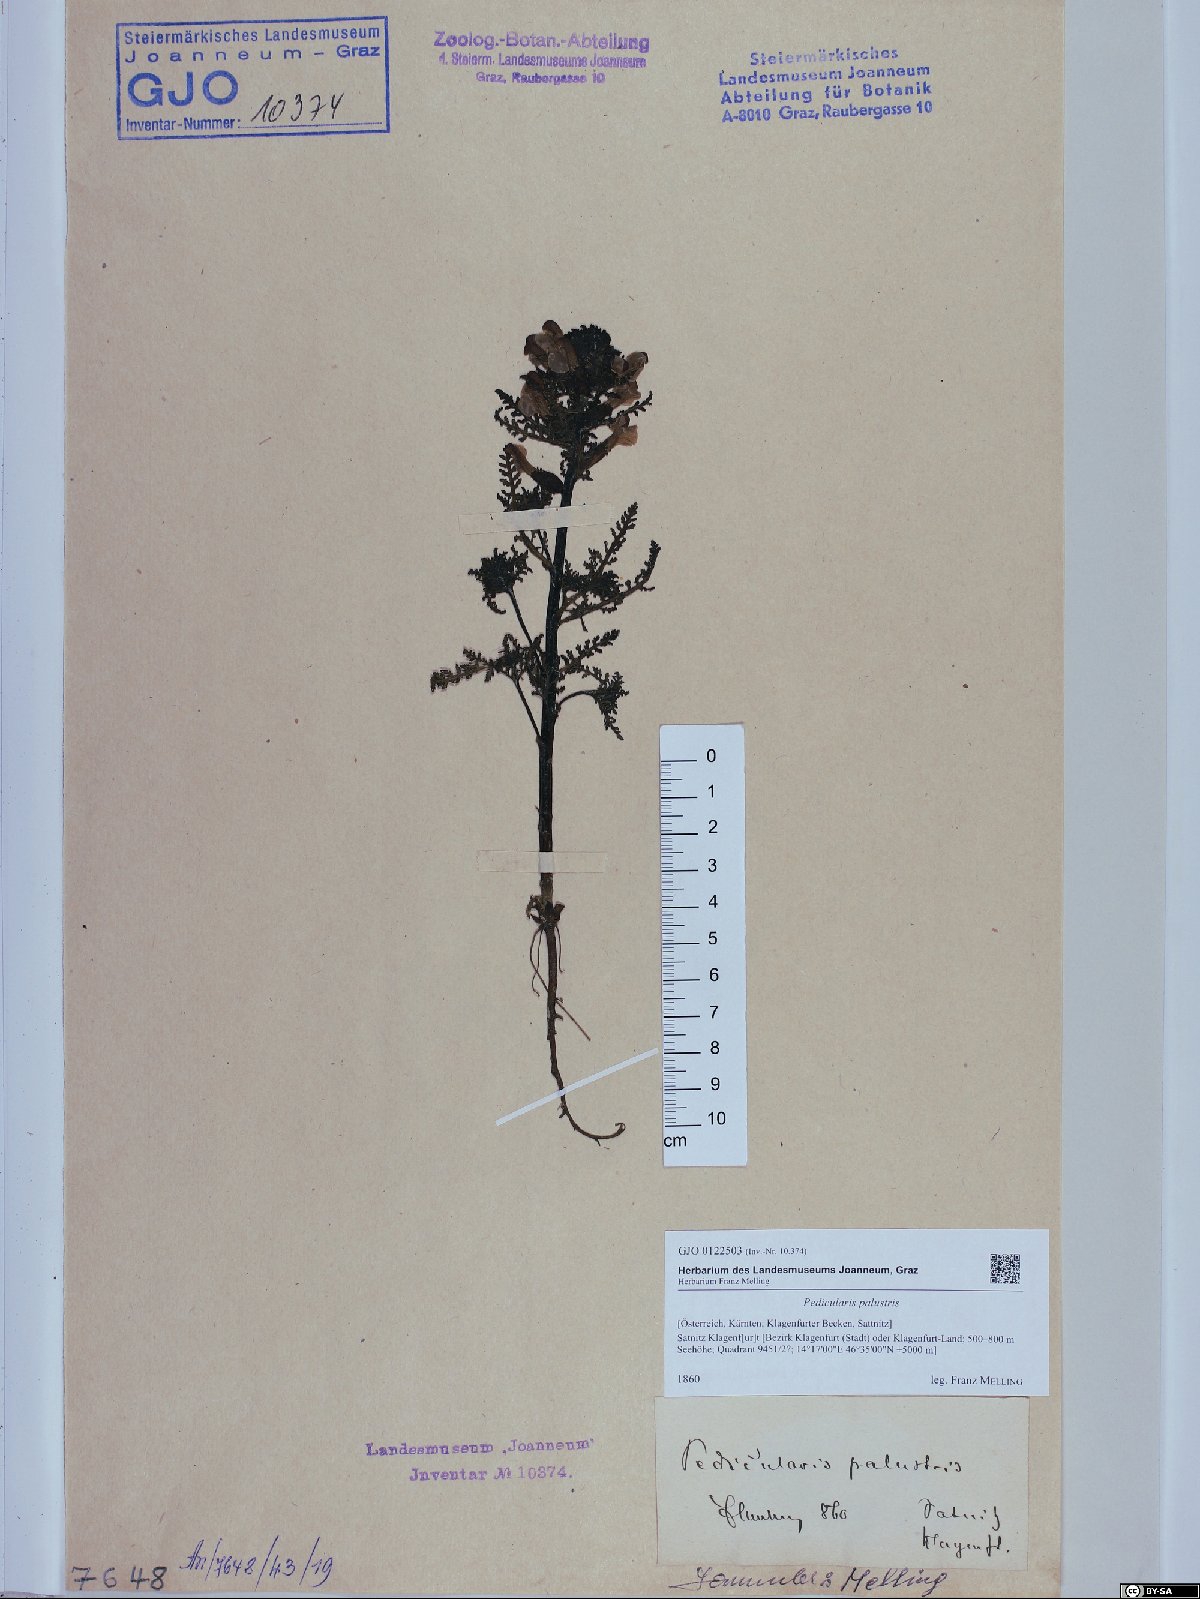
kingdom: Plantae
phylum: Tracheophyta
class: Magnoliopsida
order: Lamiales
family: Orobanchaceae
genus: Pedicularis
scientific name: Pedicularis palustris
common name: Marsh lousewort
